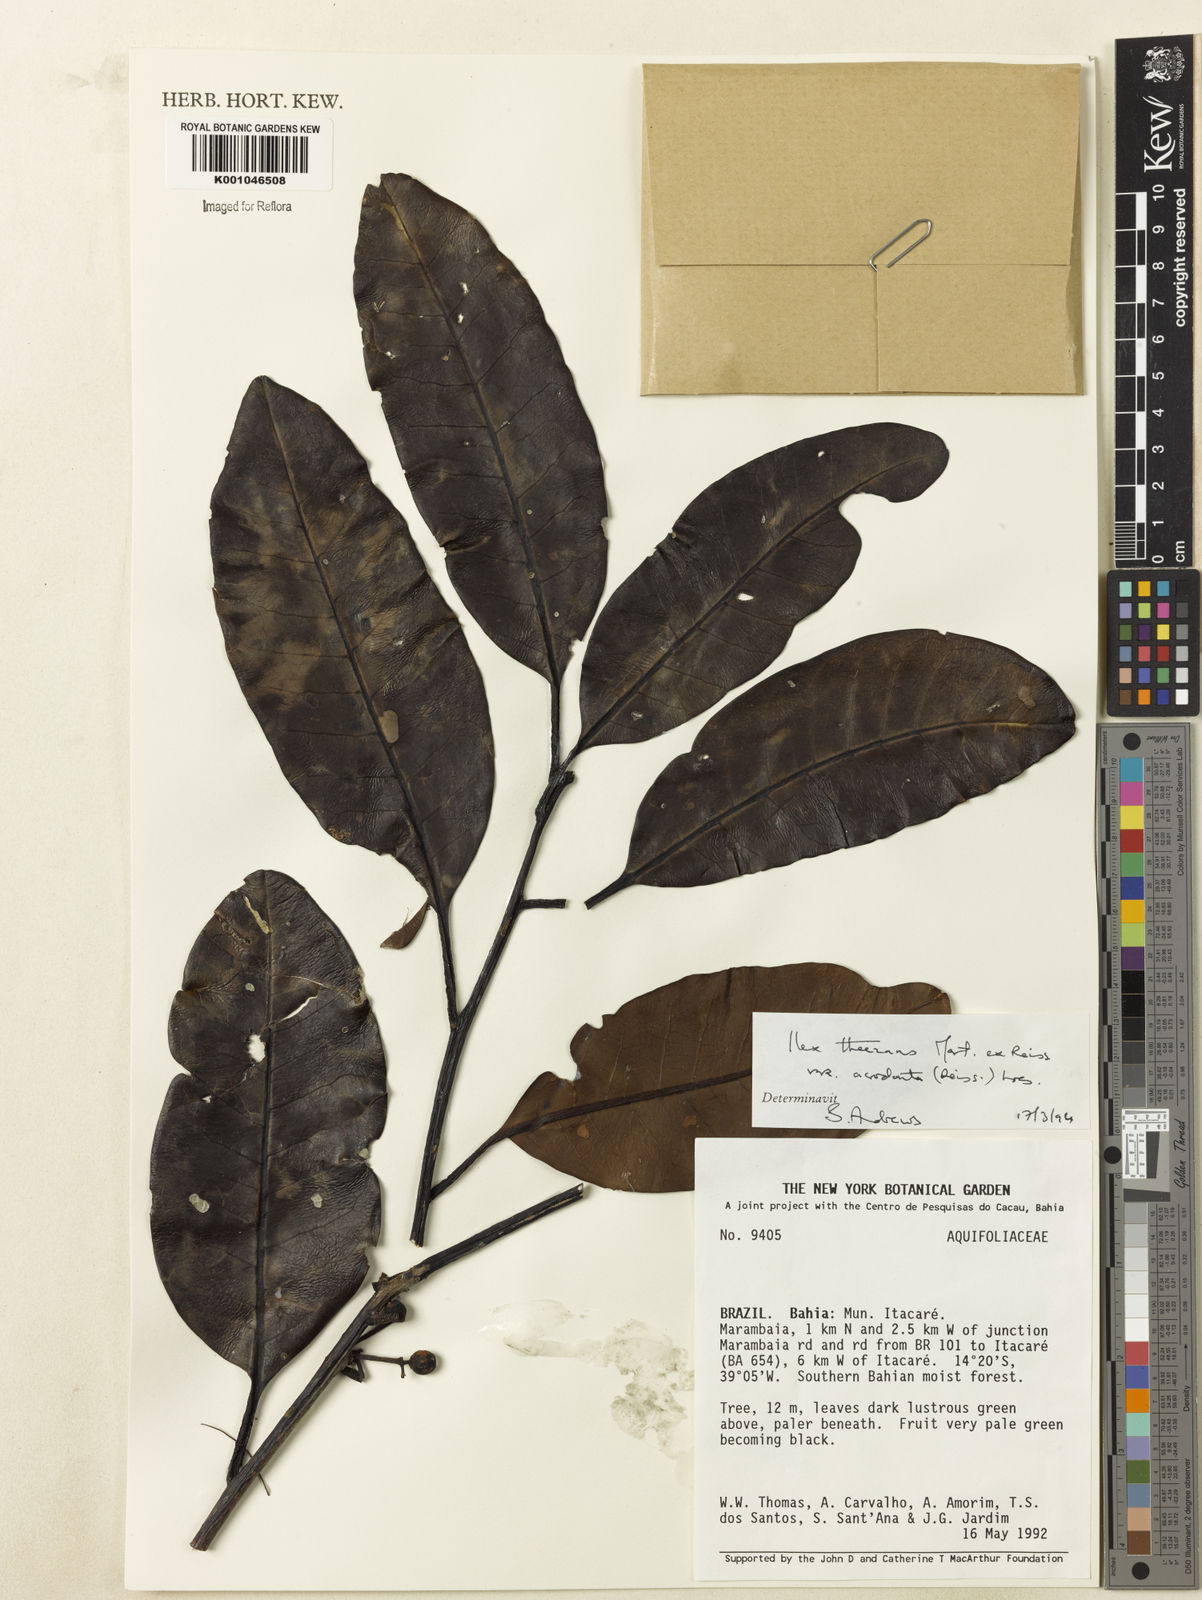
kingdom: Plantae
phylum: Tracheophyta
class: Magnoliopsida
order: Aquifoliales
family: Aquifoliaceae
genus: Ilex
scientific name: Ilex theezans
